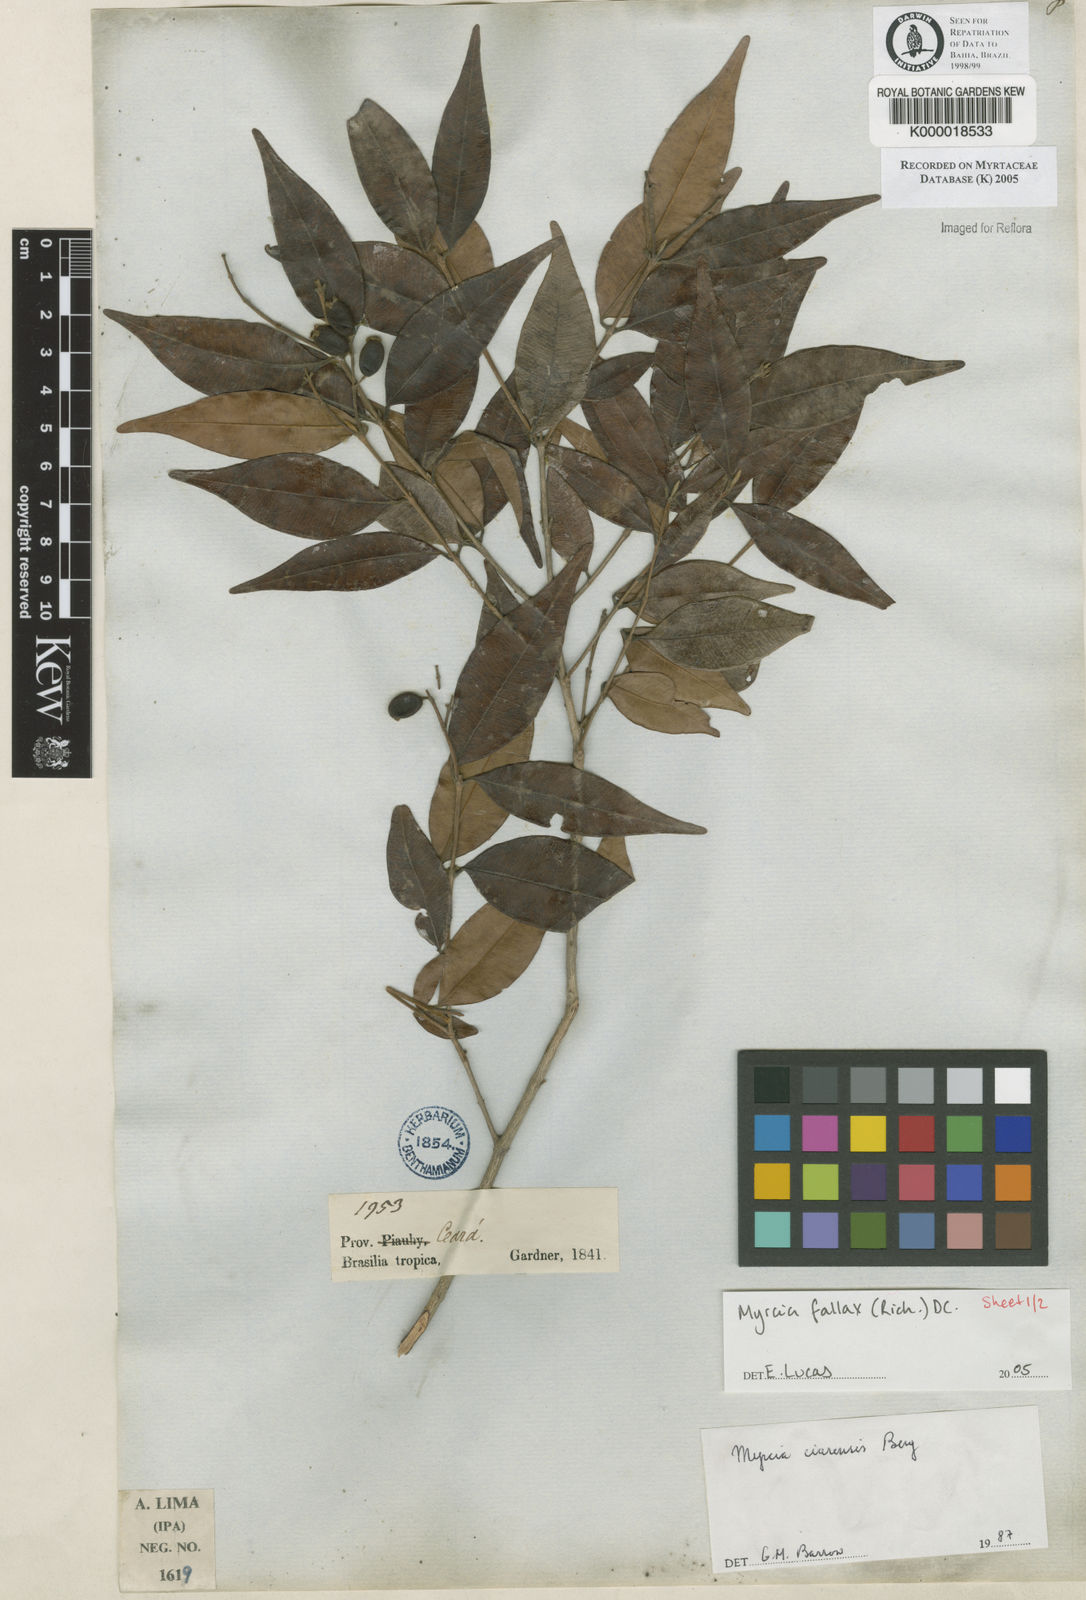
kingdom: Plantae
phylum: Tracheophyta
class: Magnoliopsida
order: Myrtales
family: Myrtaceae
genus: Myrcia
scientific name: Myrcia splendens
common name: Surinam cherry
